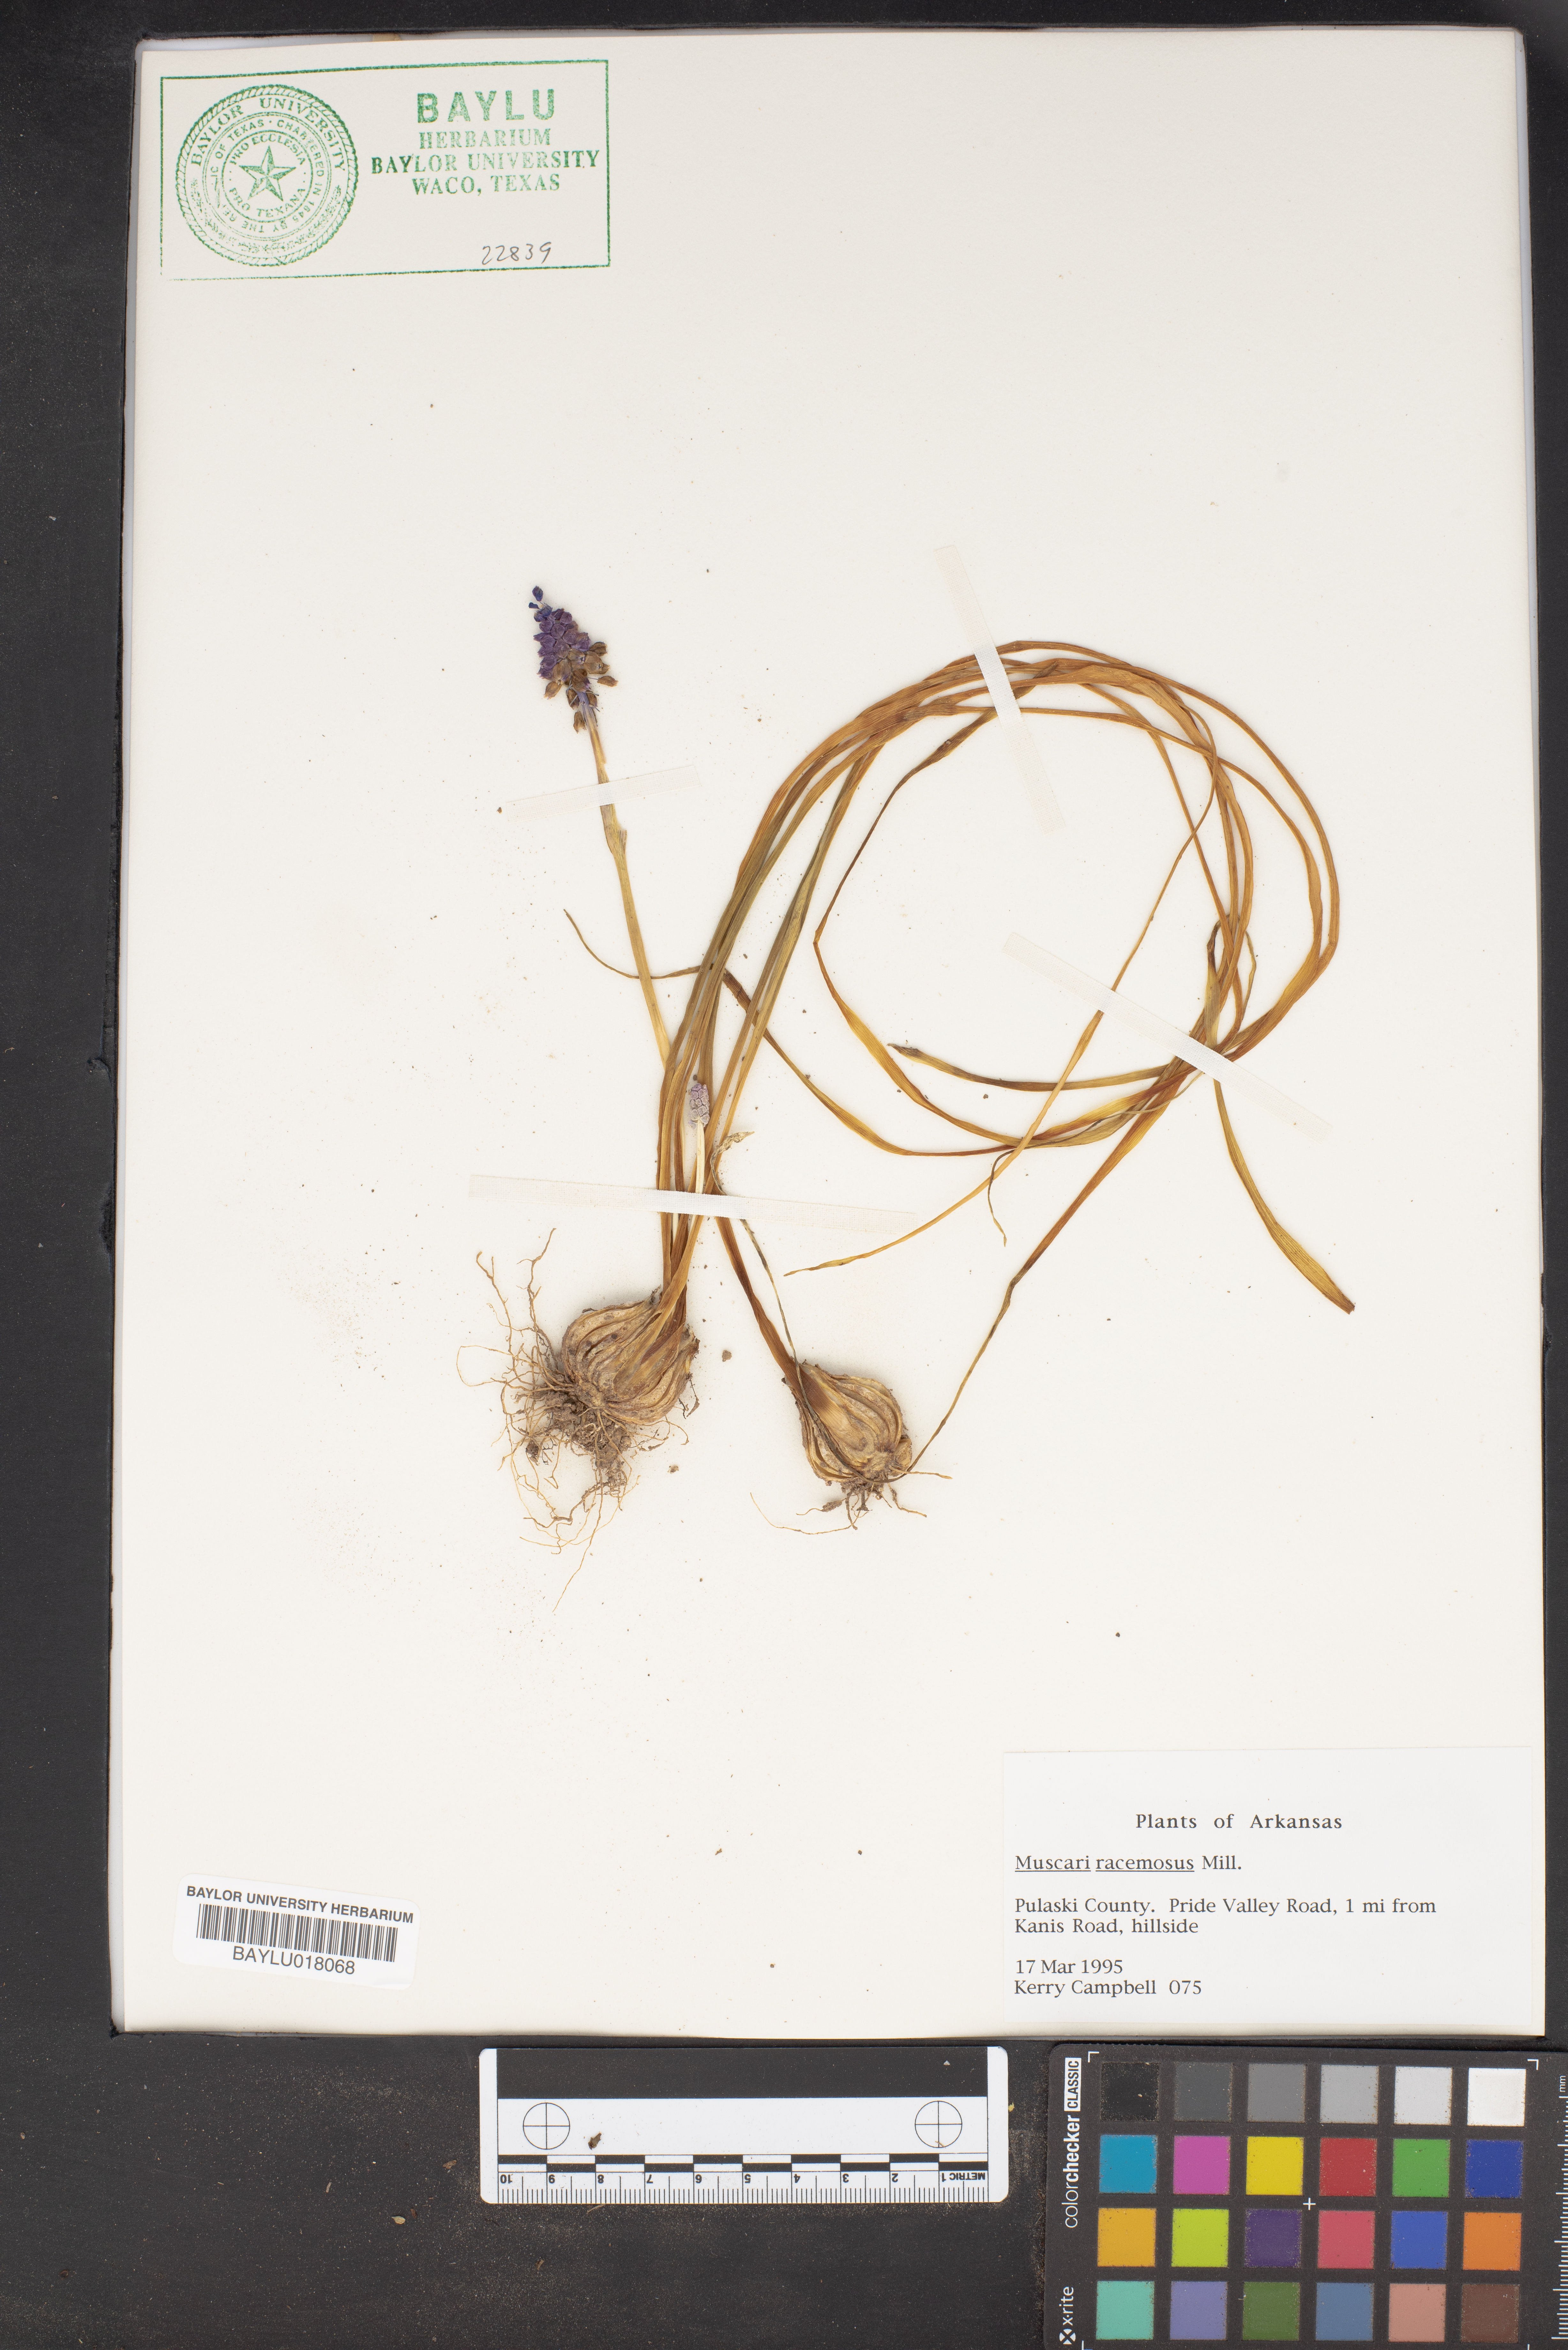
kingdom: Plantae
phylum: Tracheophyta
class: Liliopsida
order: Asparagales
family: Asparagaceae
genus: Muscarimia
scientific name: Muscarimia muscari
